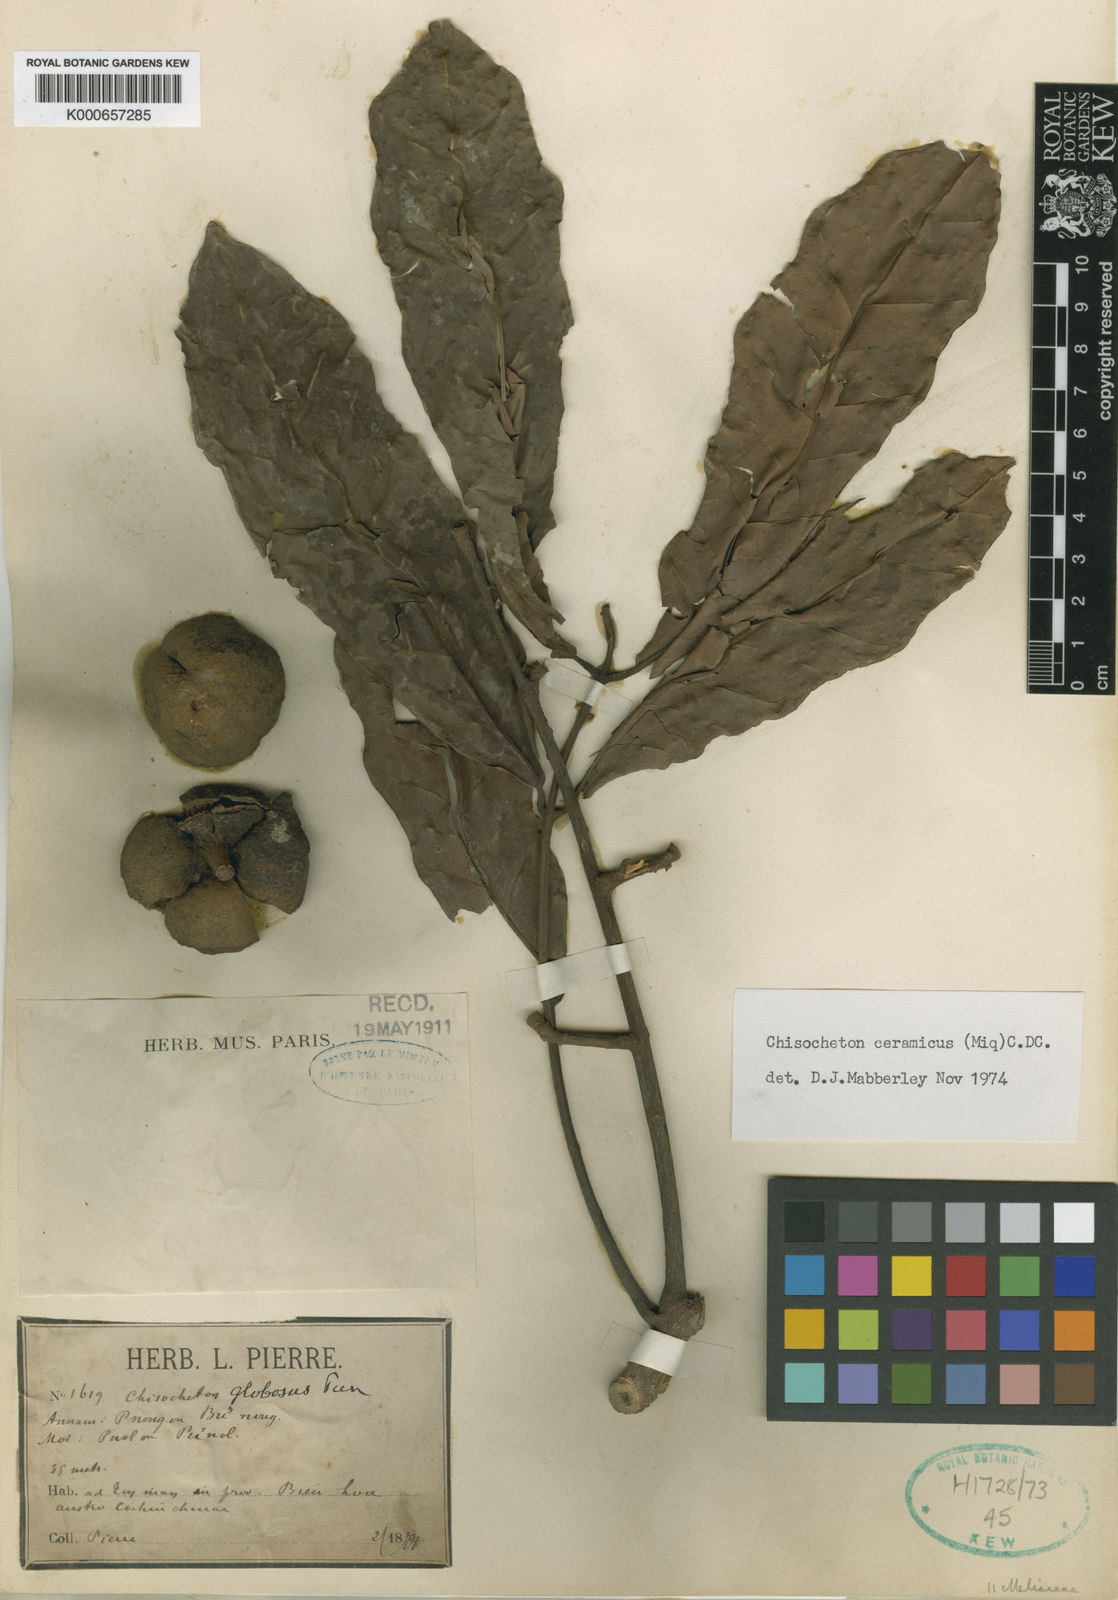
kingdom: Plantae
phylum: Tracheophyta
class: Magnoliopsida
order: Sapindales
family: Meliaceae
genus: Chisocheton
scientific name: Chisocheton ceramicus
